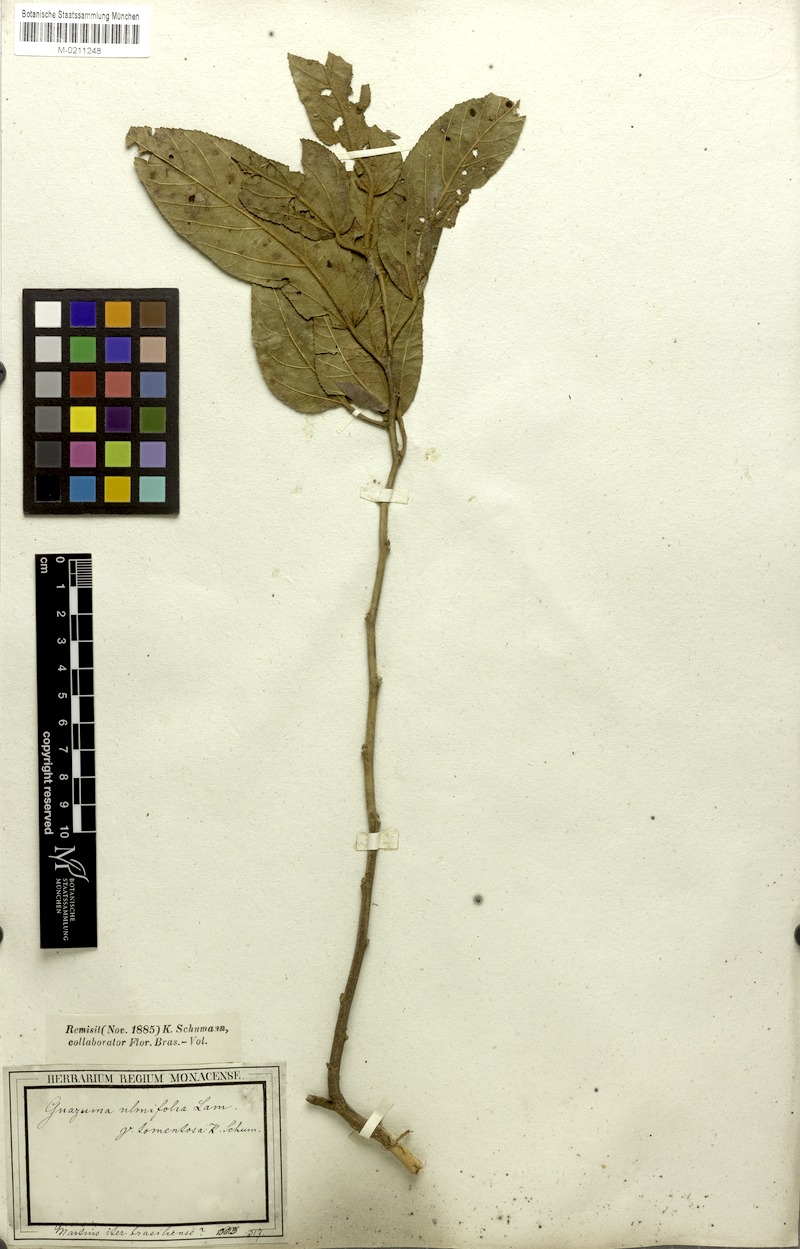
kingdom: Plantae
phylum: Tracheophyta
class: Magnoliopsida
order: Malvales
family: Malvaceae
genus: Guazuma
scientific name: Guazuma ulmifolia
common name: Bastard-cedar
